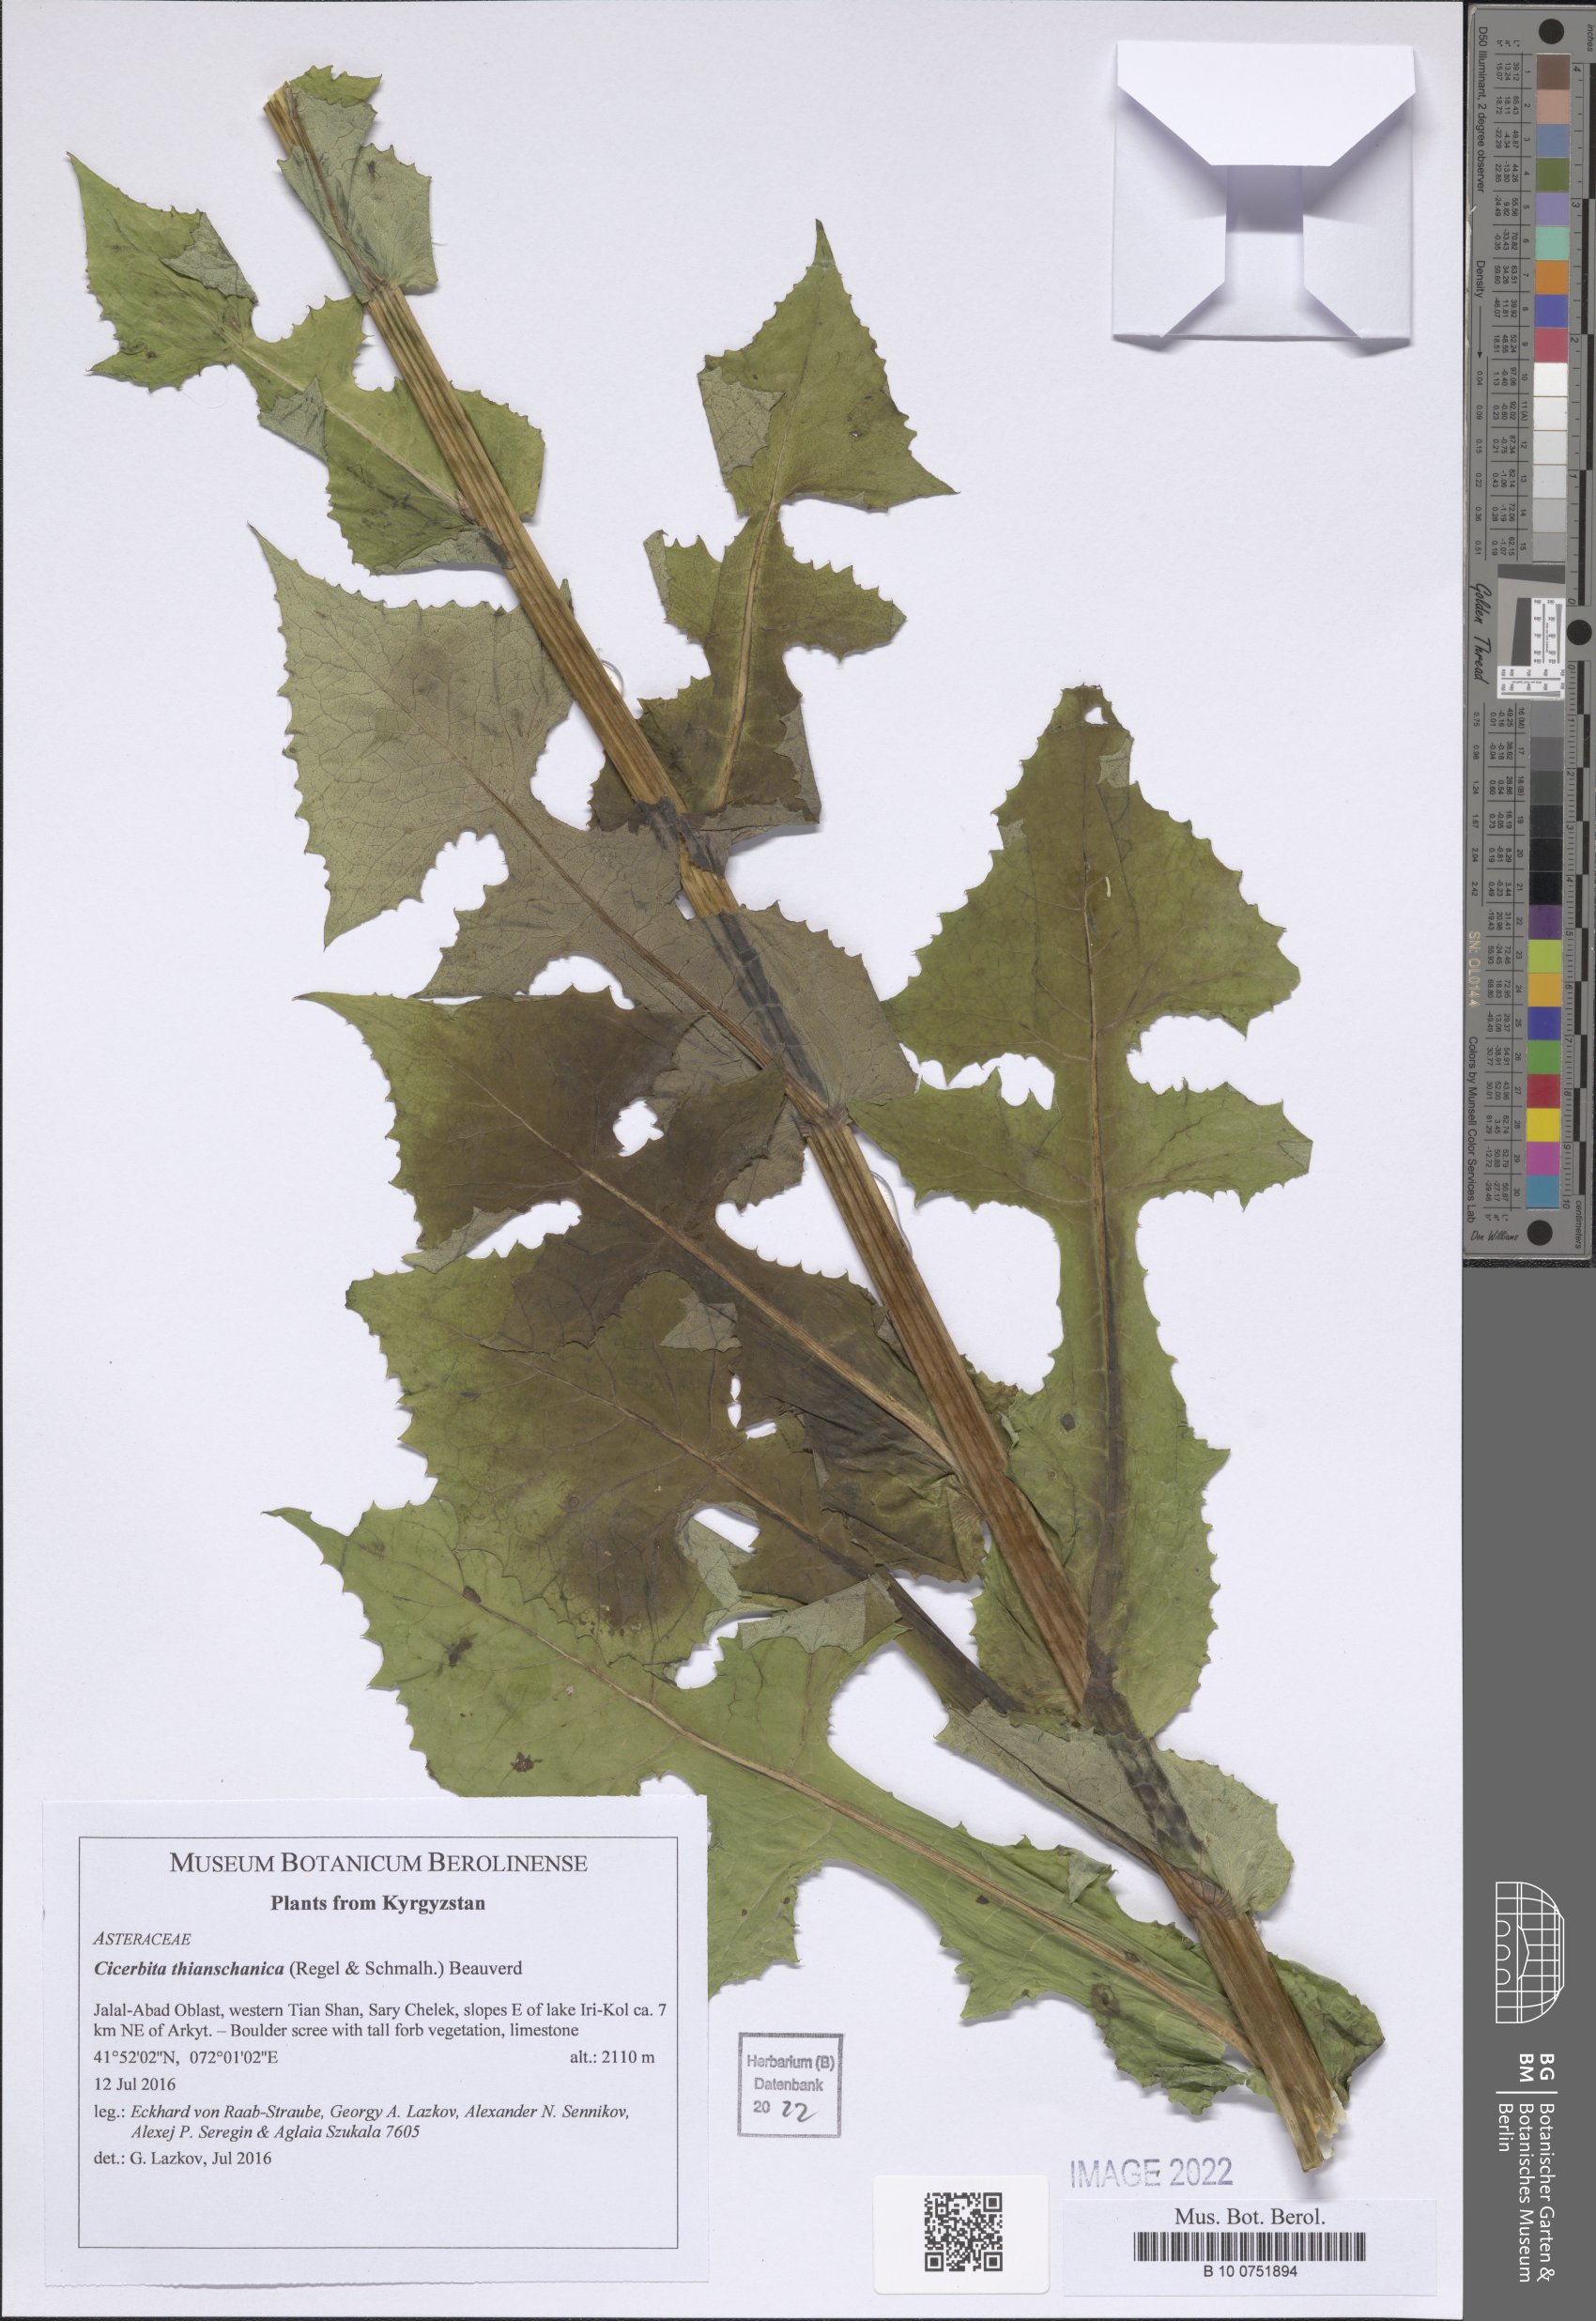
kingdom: Plantae
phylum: Tracheophyta
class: Magnoliopsida
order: Asterales
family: Asteraceae
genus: Cicerbita
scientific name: Cicerbita thianschanica
